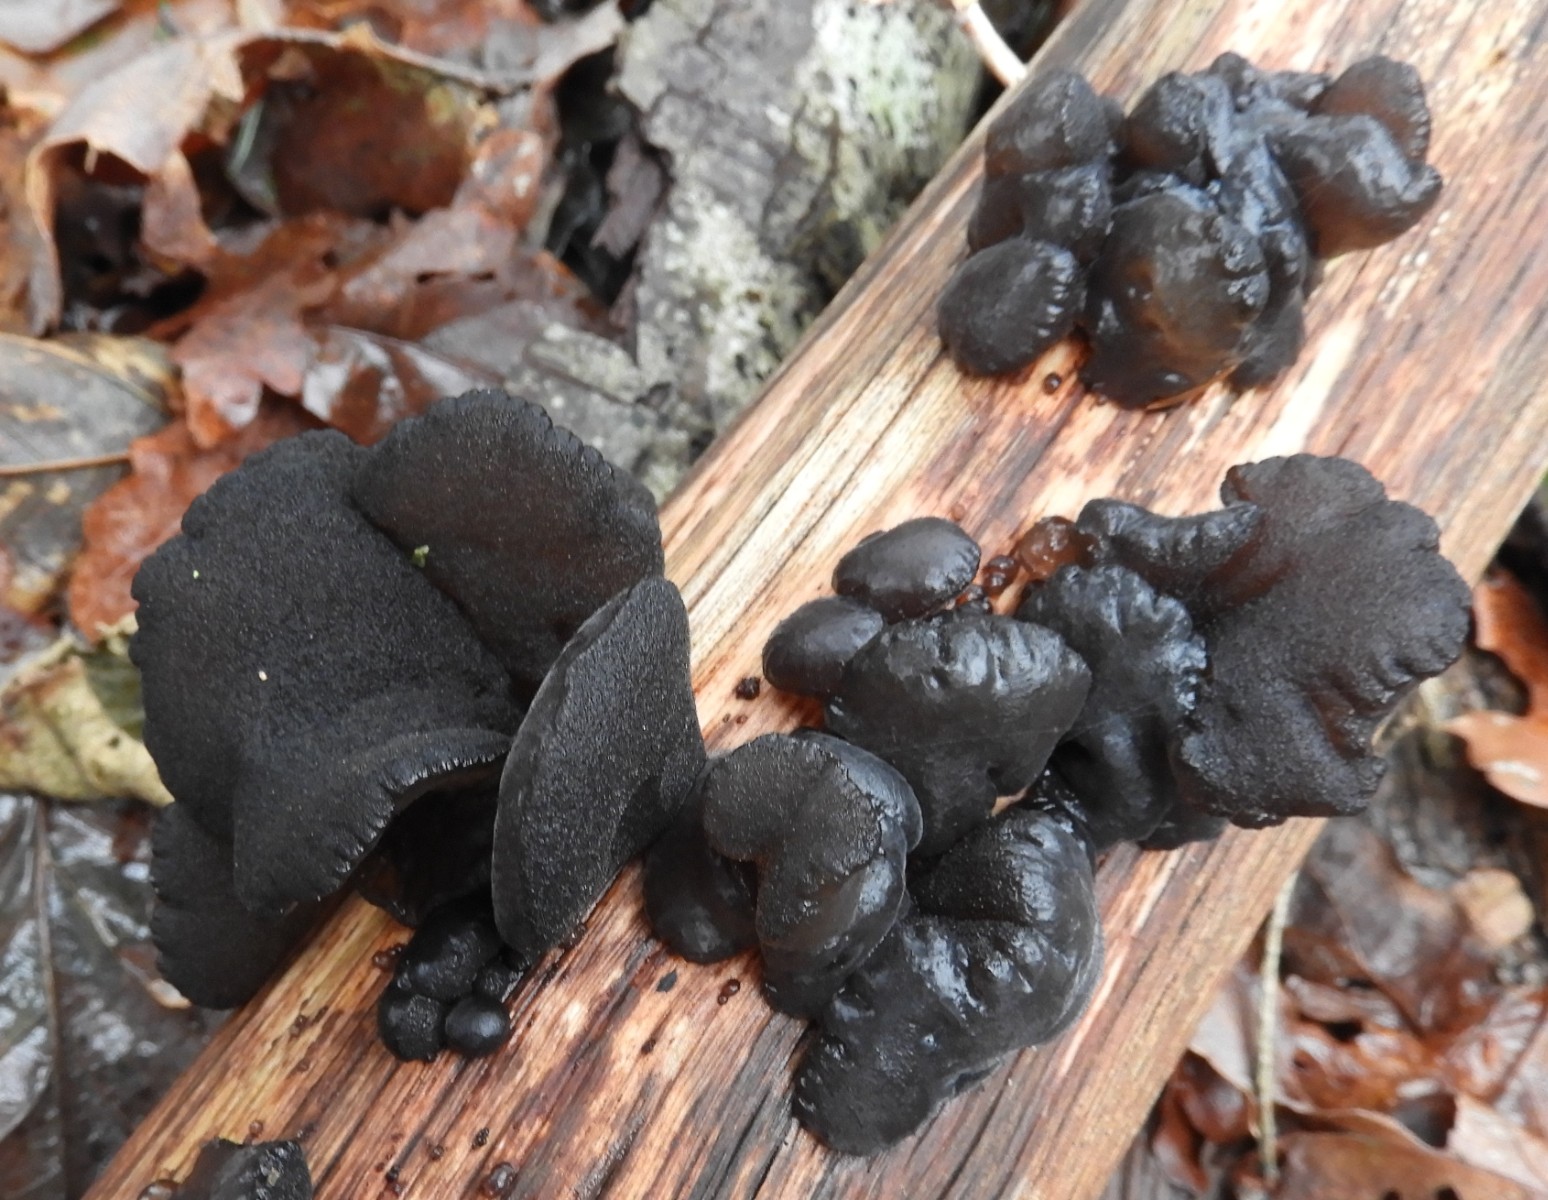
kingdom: Fungi
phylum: Basidiomycota
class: Agaricomycetes
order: Auriculariales
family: Auriculariaceae
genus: Exidia
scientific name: Exidia glandulosa
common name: ege-bævretop
